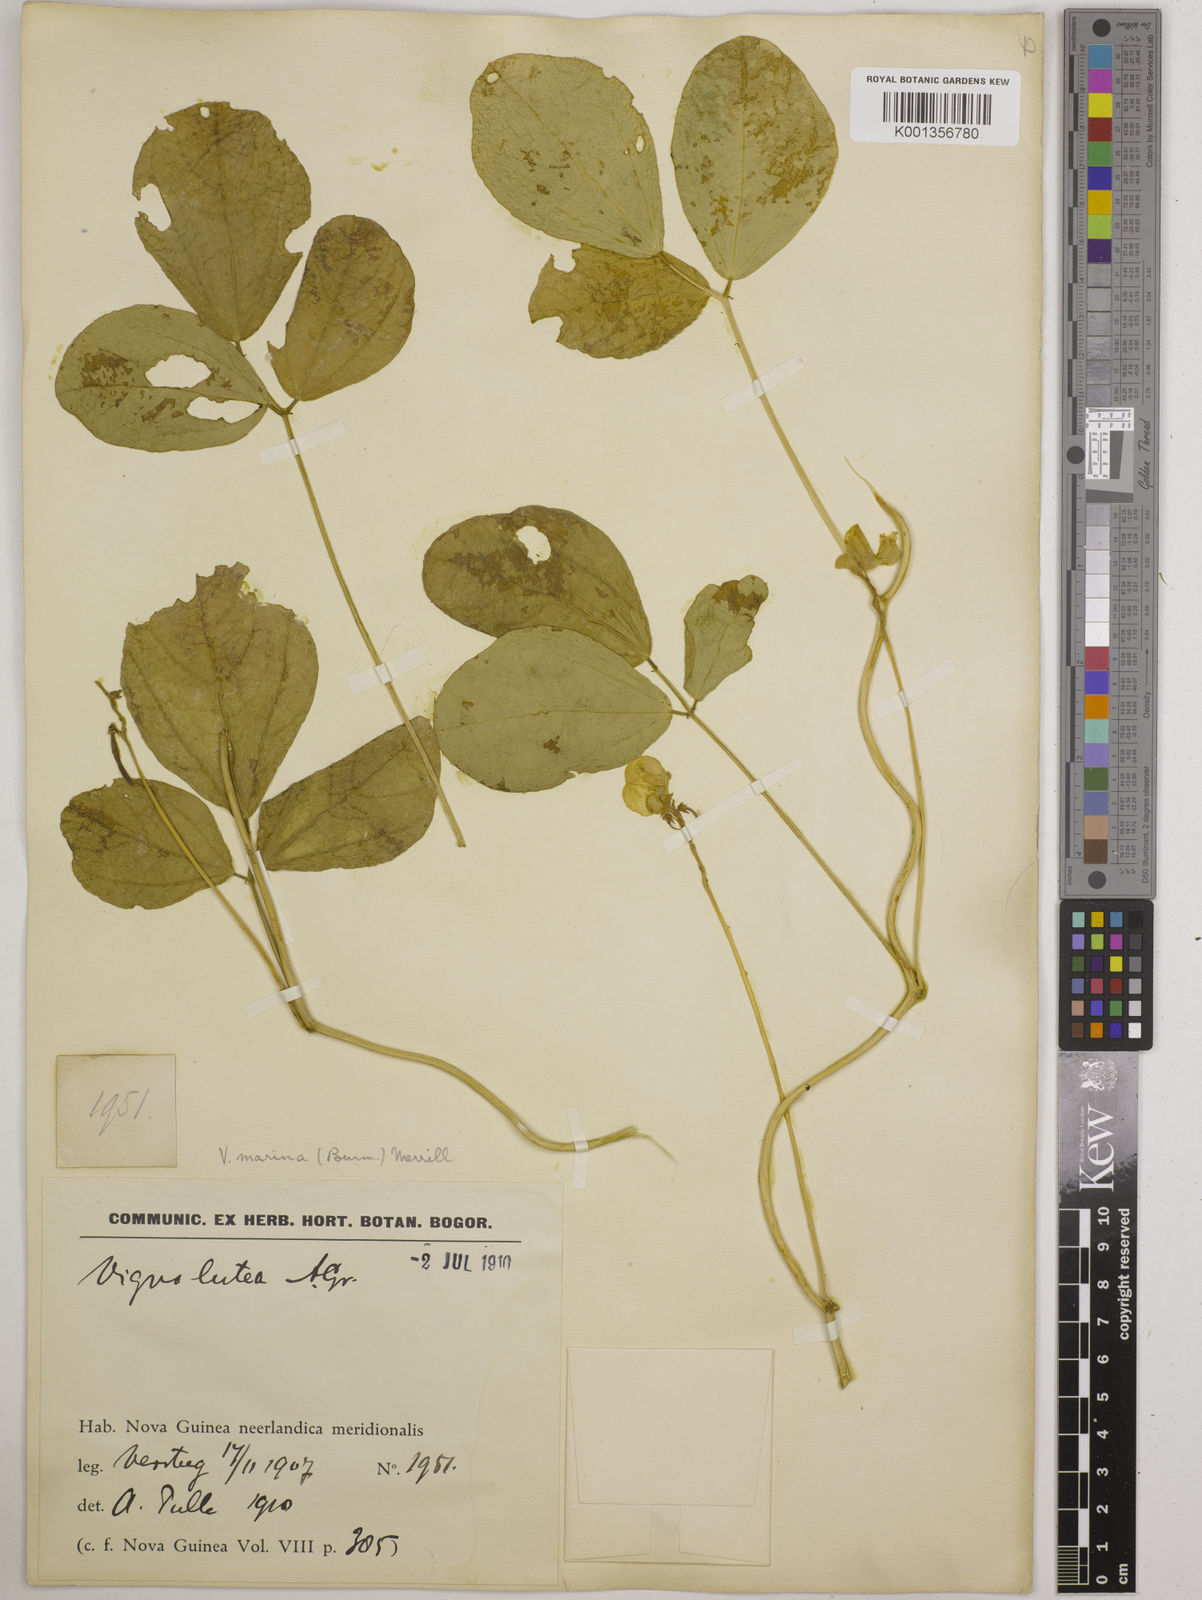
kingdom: Plantae
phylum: Tracheophyta
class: Magnoliopsida
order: Fabales
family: Fabaceae
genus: Vigna
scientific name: Vigna marina
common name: Dune-bean
